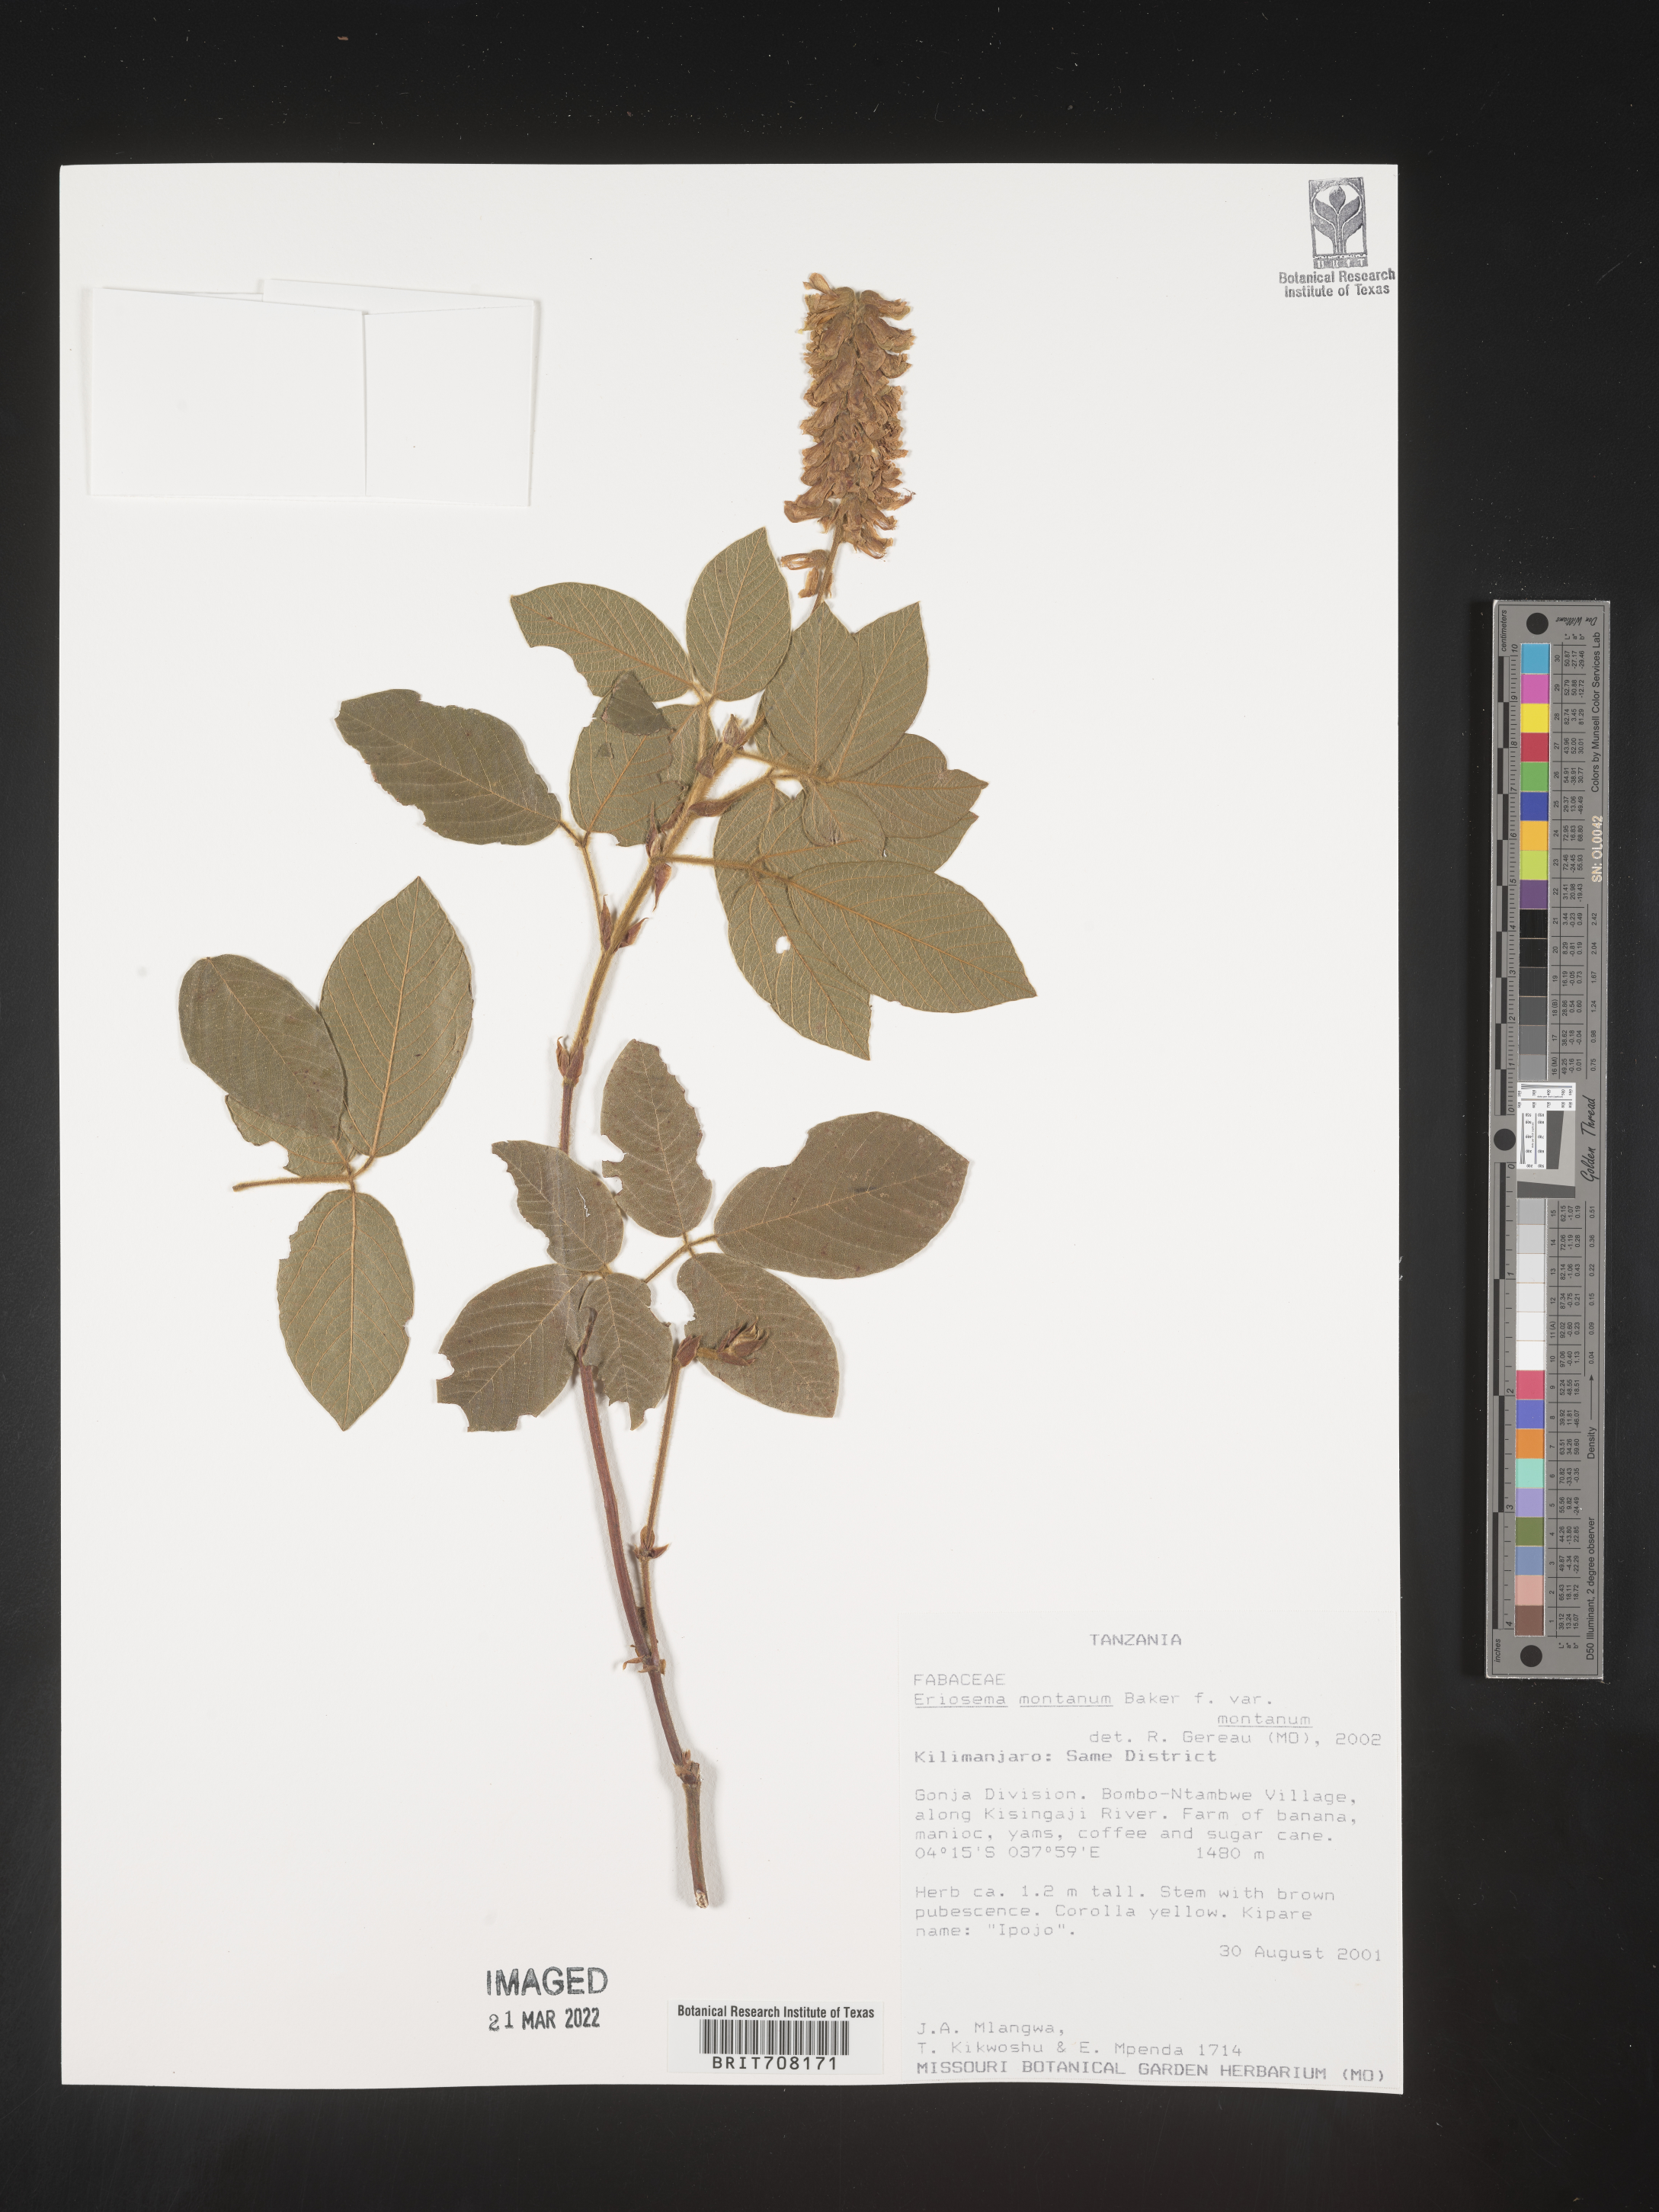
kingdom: Plantae
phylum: Tracheophyta
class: Magnoliopsida
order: Fabales
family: Fabaceae
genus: Eriosema
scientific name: Eriosema
